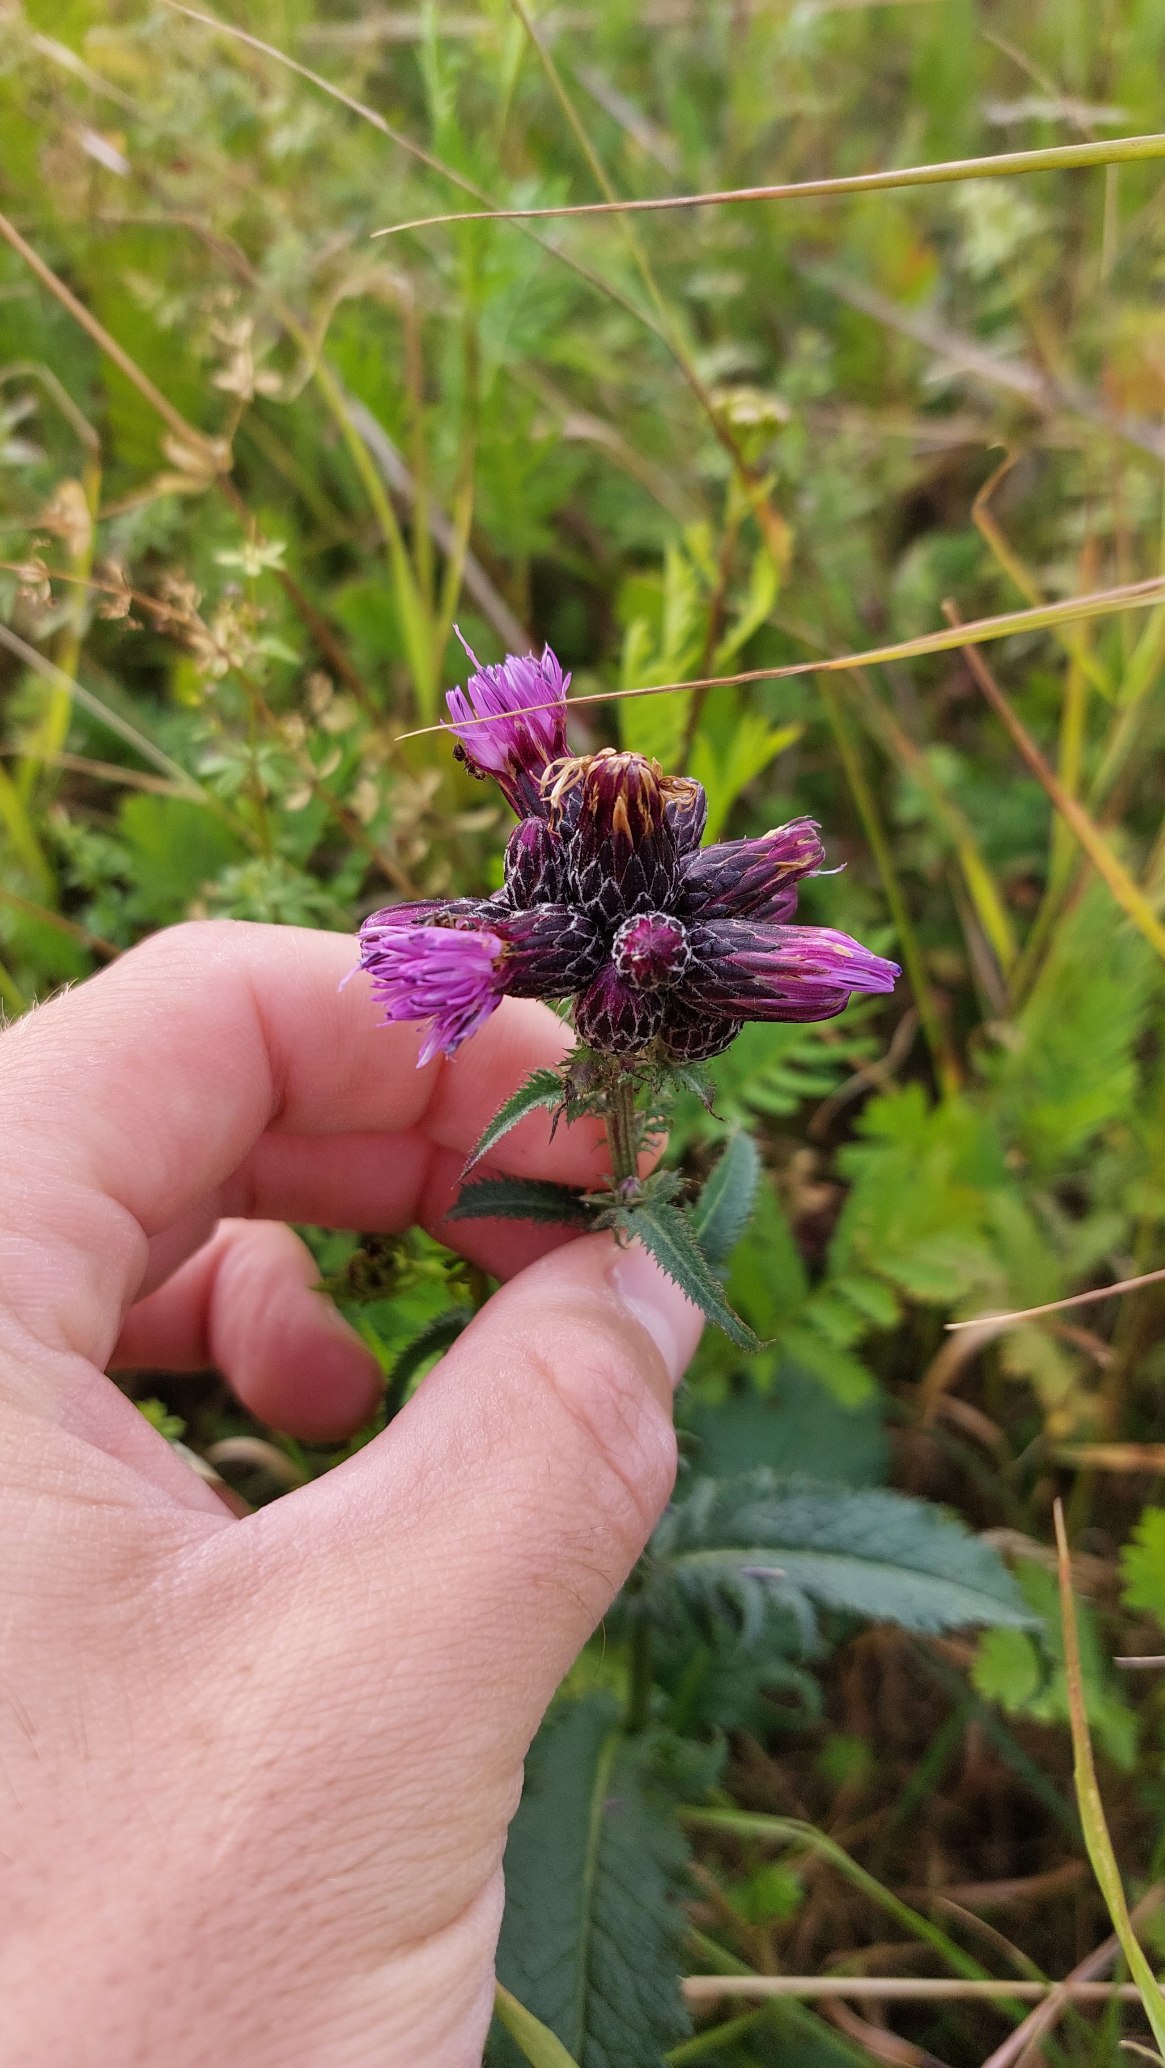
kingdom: Plantae
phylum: Tracheophyta
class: Magnoliopsida
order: Asterales
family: Asteraceae
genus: Serratula
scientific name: Serratula tinctoria
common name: Eng-skær
